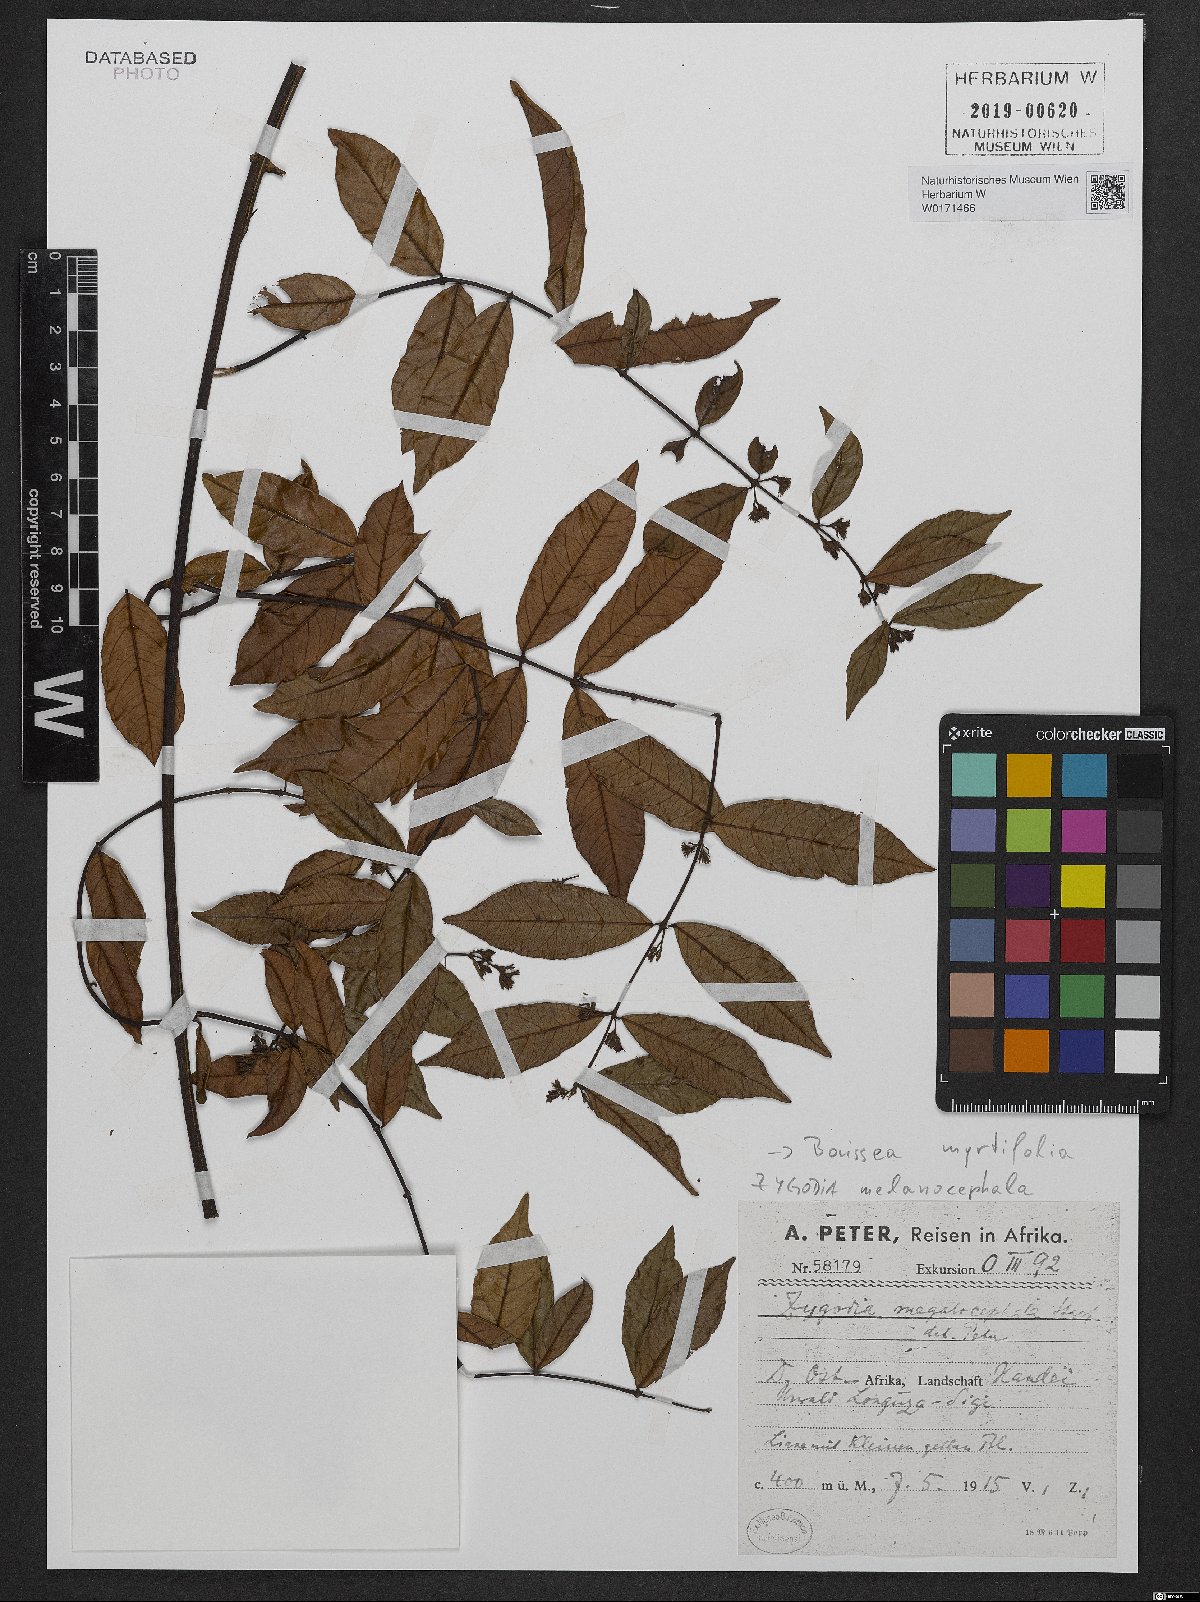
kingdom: Plantae
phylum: Tracheophyta
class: Magnoliopsida
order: Gentianales
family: Apocynaceae
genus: Baissea
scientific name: Baissea myrtifolia
